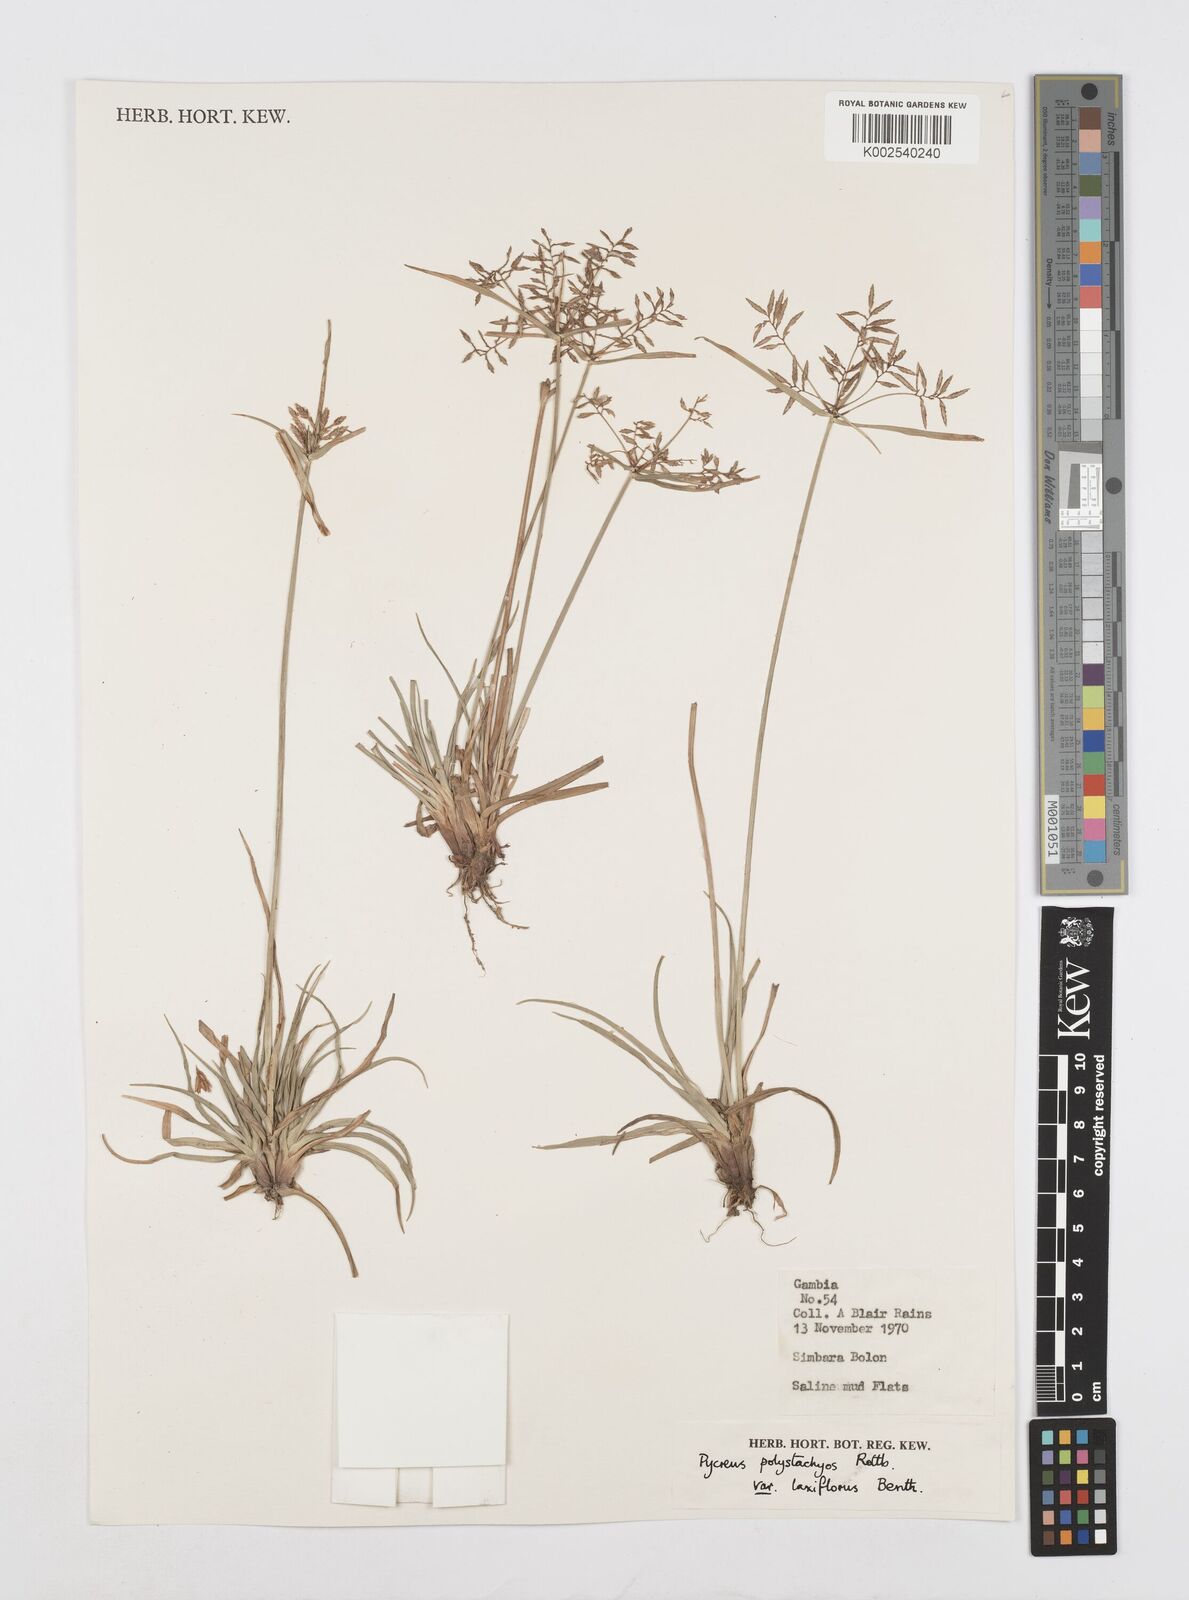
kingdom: Plantae
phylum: Tracheophyta
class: Liliopsida
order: Poales
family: Cyperaceae
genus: Cyperus
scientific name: Cyperus polystachyos
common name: Bunchy flat sedge
